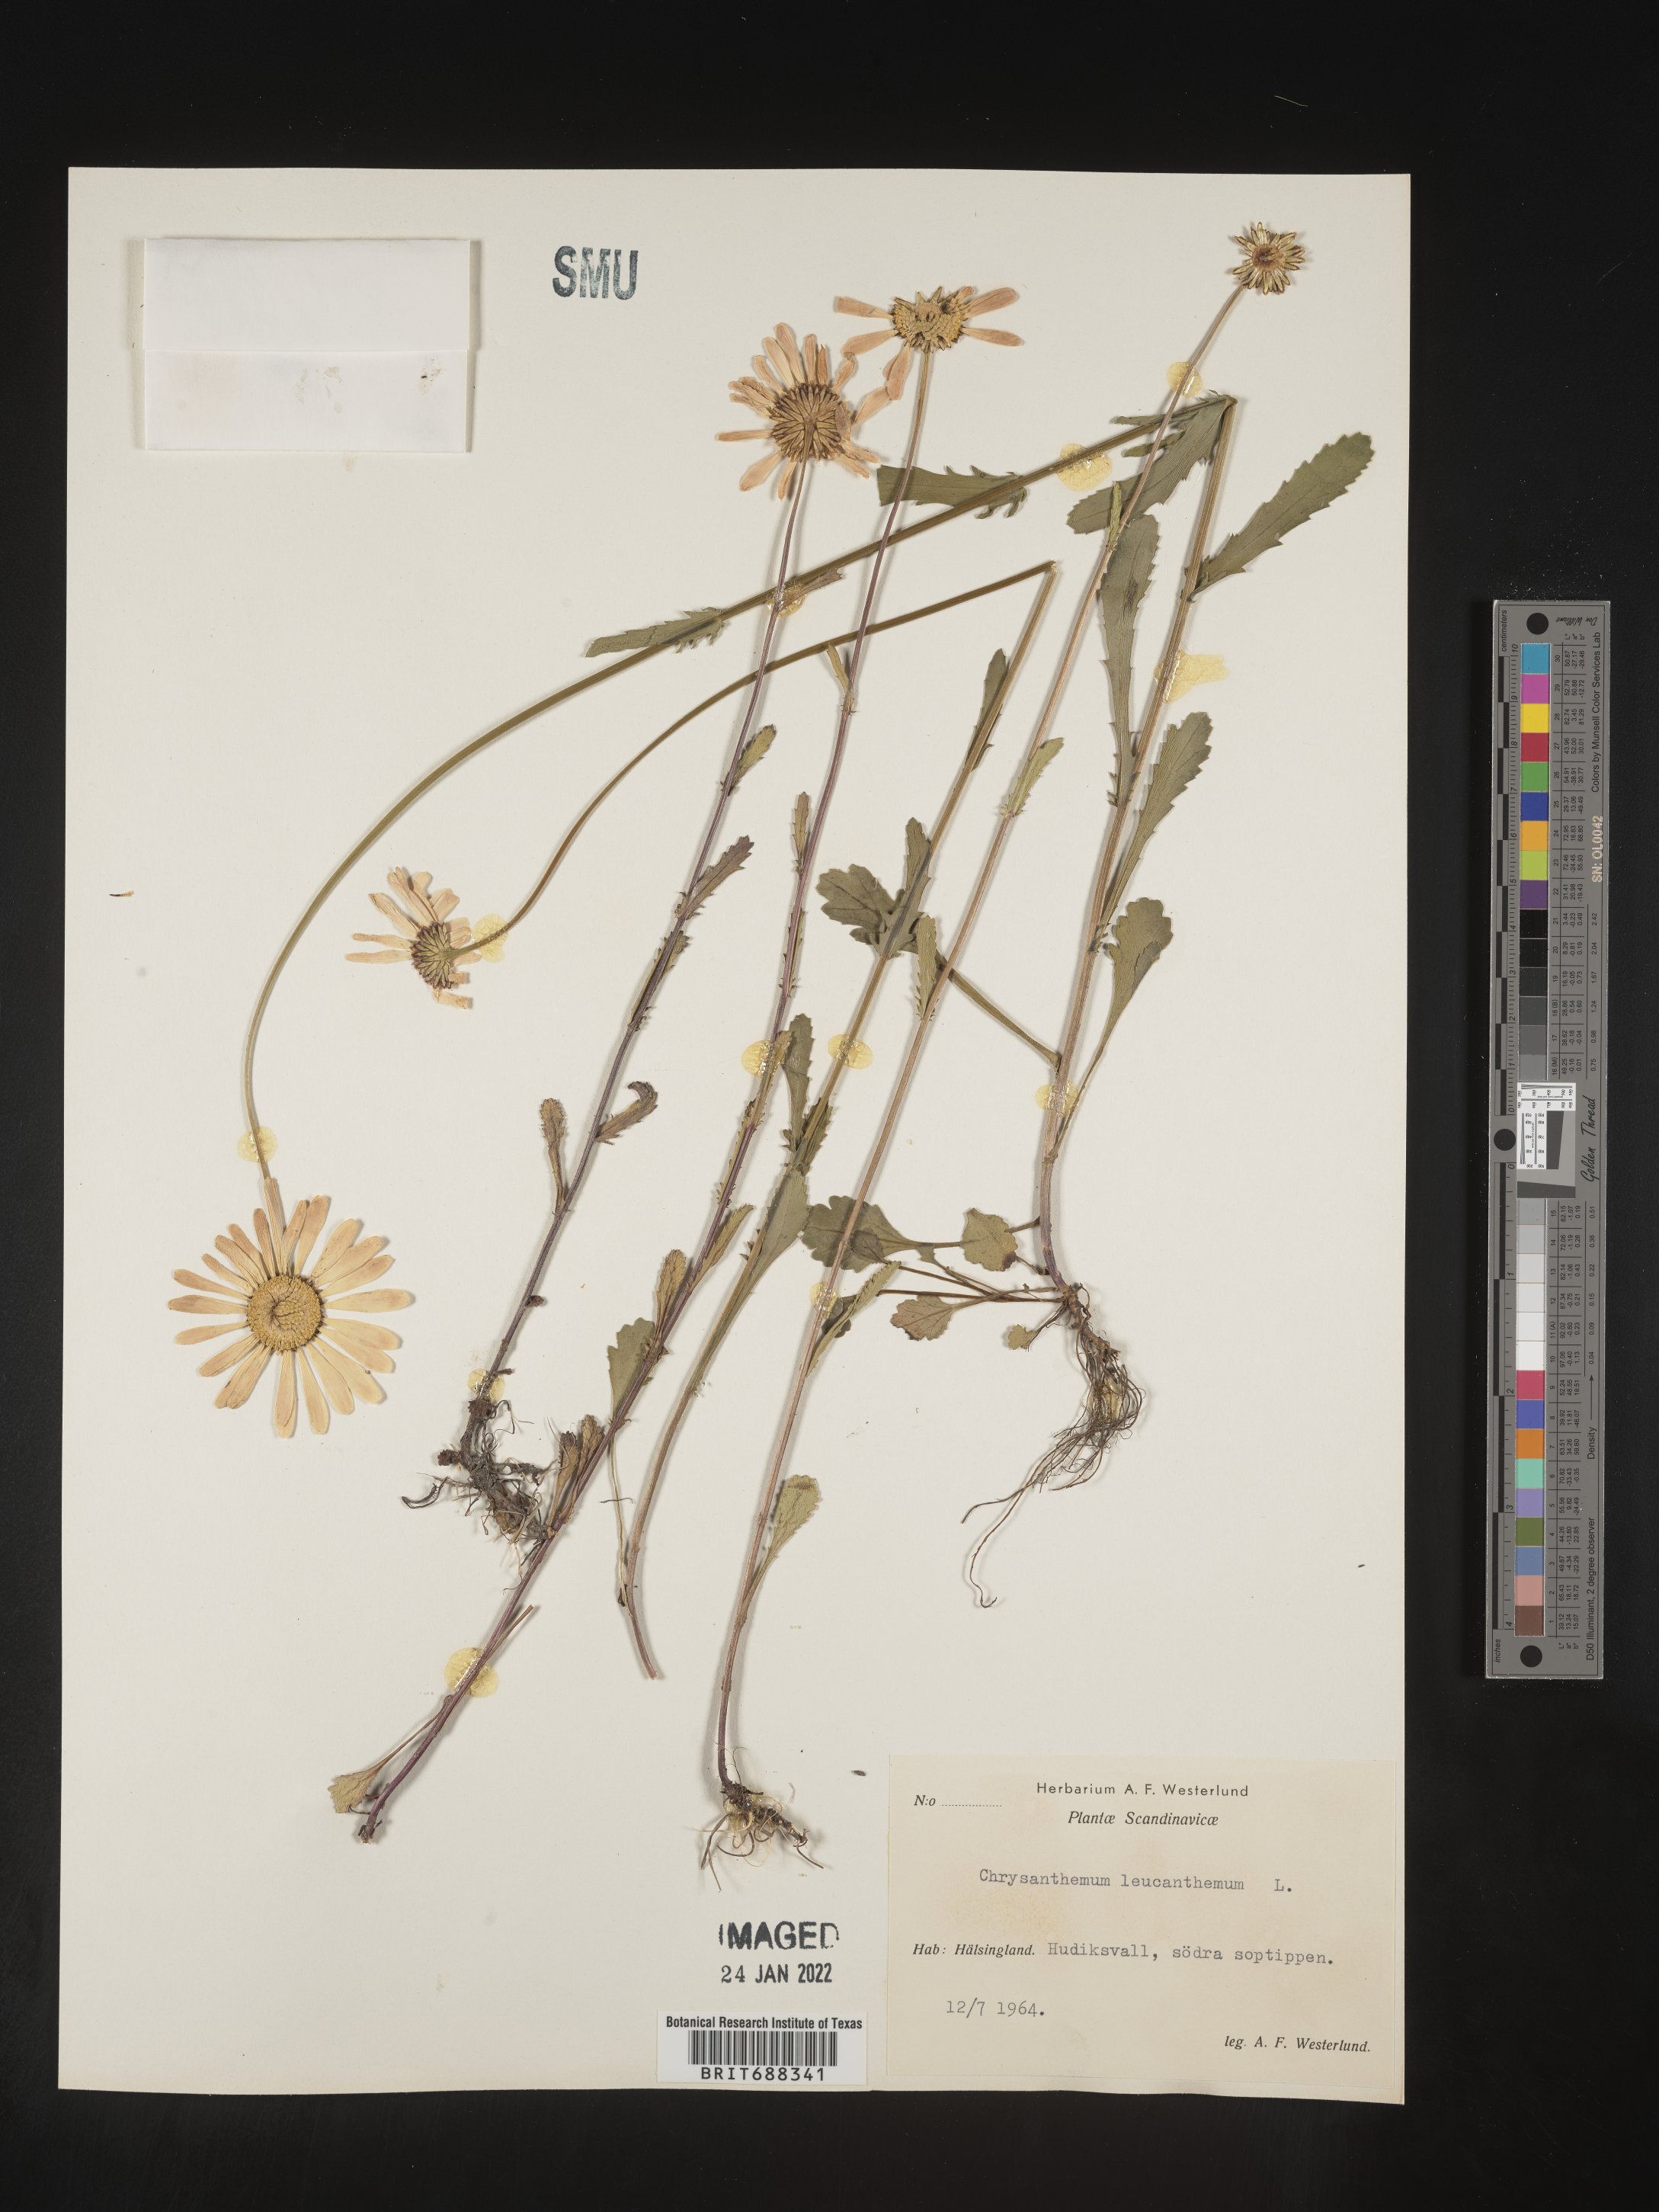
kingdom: Plantae
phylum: Tracheophyta
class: Magnoliopsida
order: Asterales
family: Asteraceae
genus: Chrysanthemum
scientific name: Chrysanthemum
